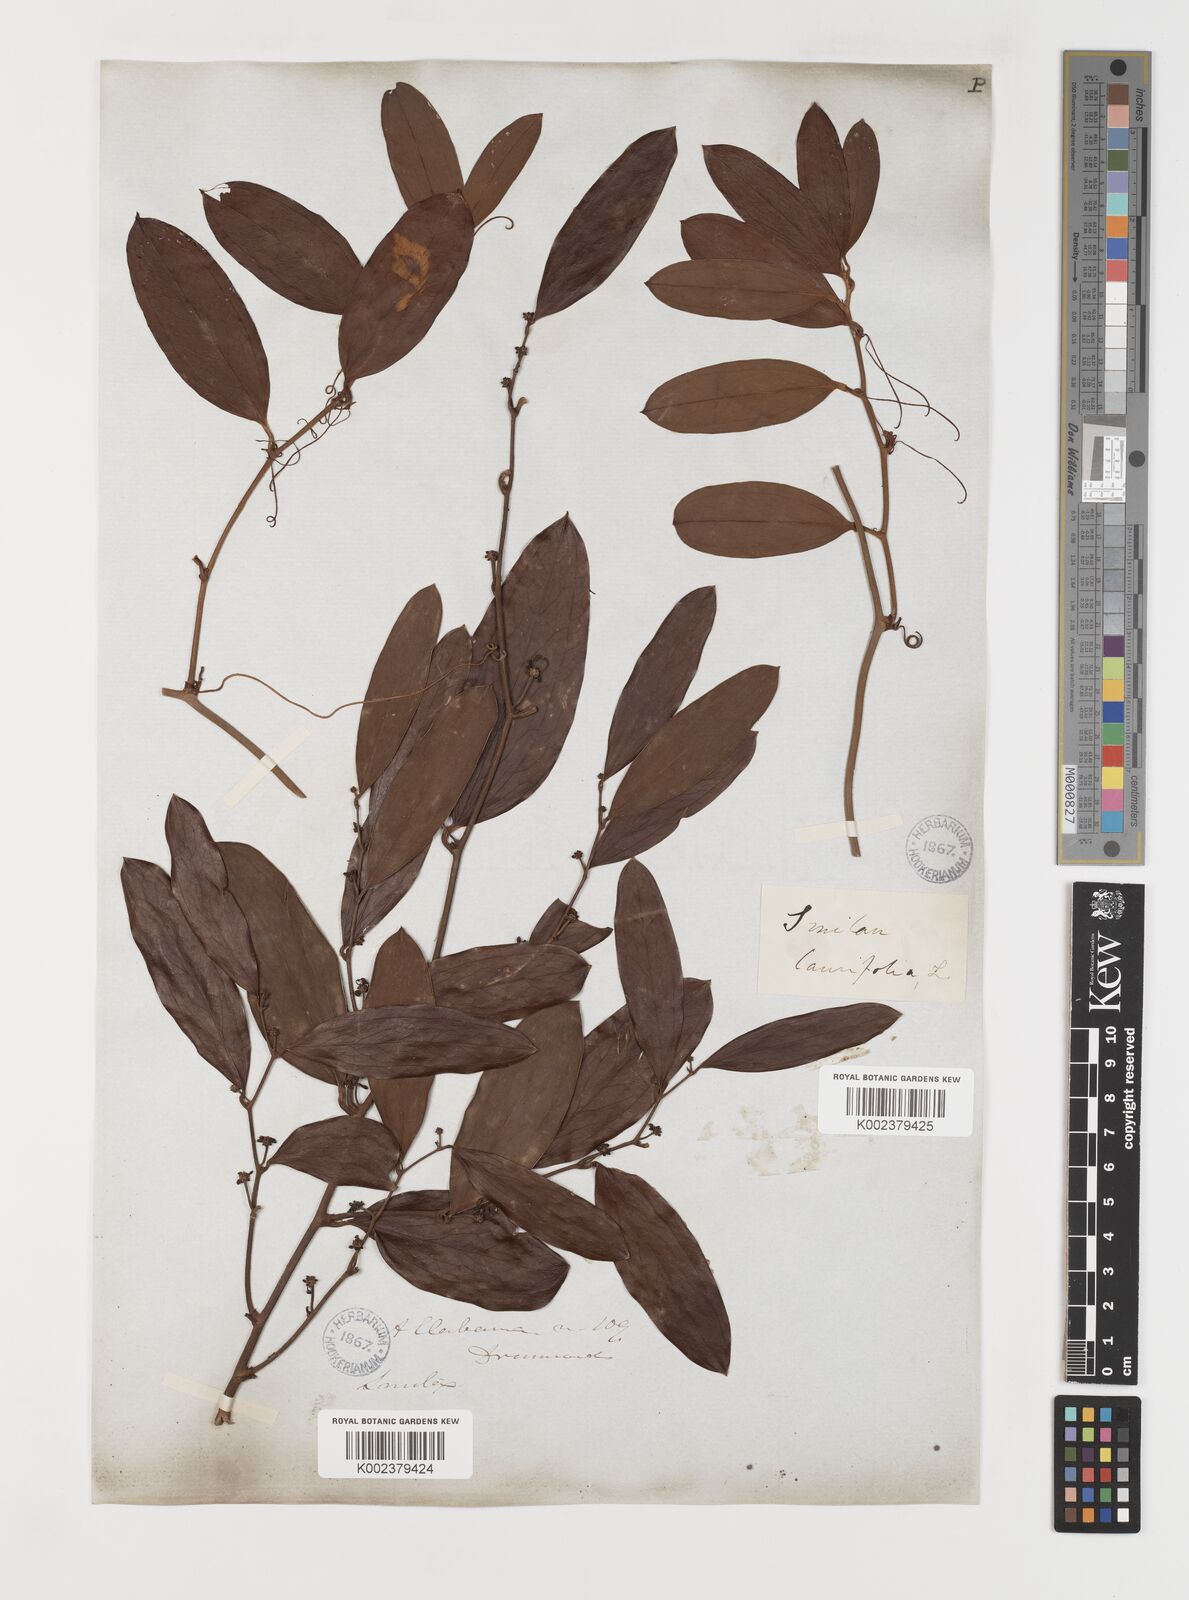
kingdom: Plantae
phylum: Tracheophyta
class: Liliopsida
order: Liliales
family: Smilacaceae
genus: Smilax
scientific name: Smilax laurifolia
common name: Bamboovine
